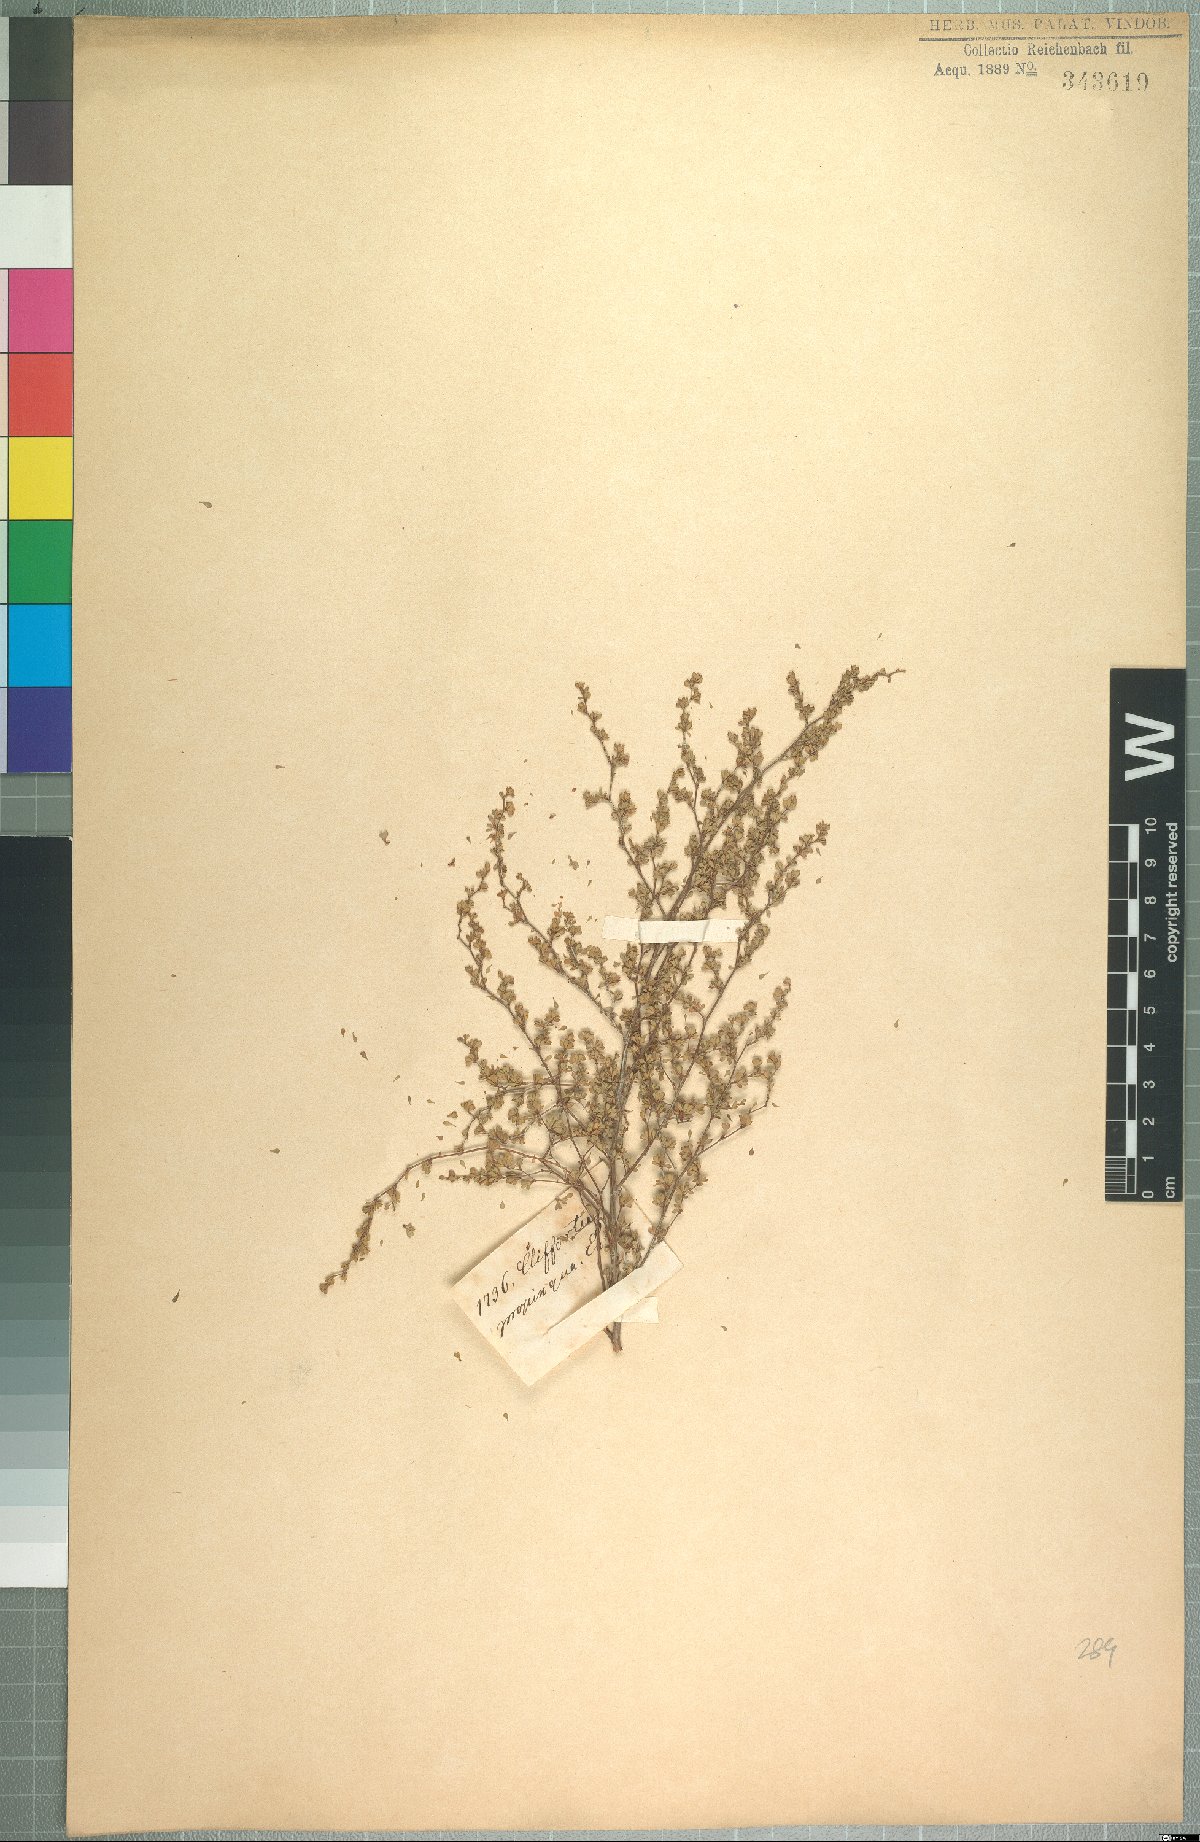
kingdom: Plantae
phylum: Tracheophyta
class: Magnoliopsida
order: Rosales
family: Rosaceae
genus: Cliffortia
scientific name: Cliffortia propinqua
